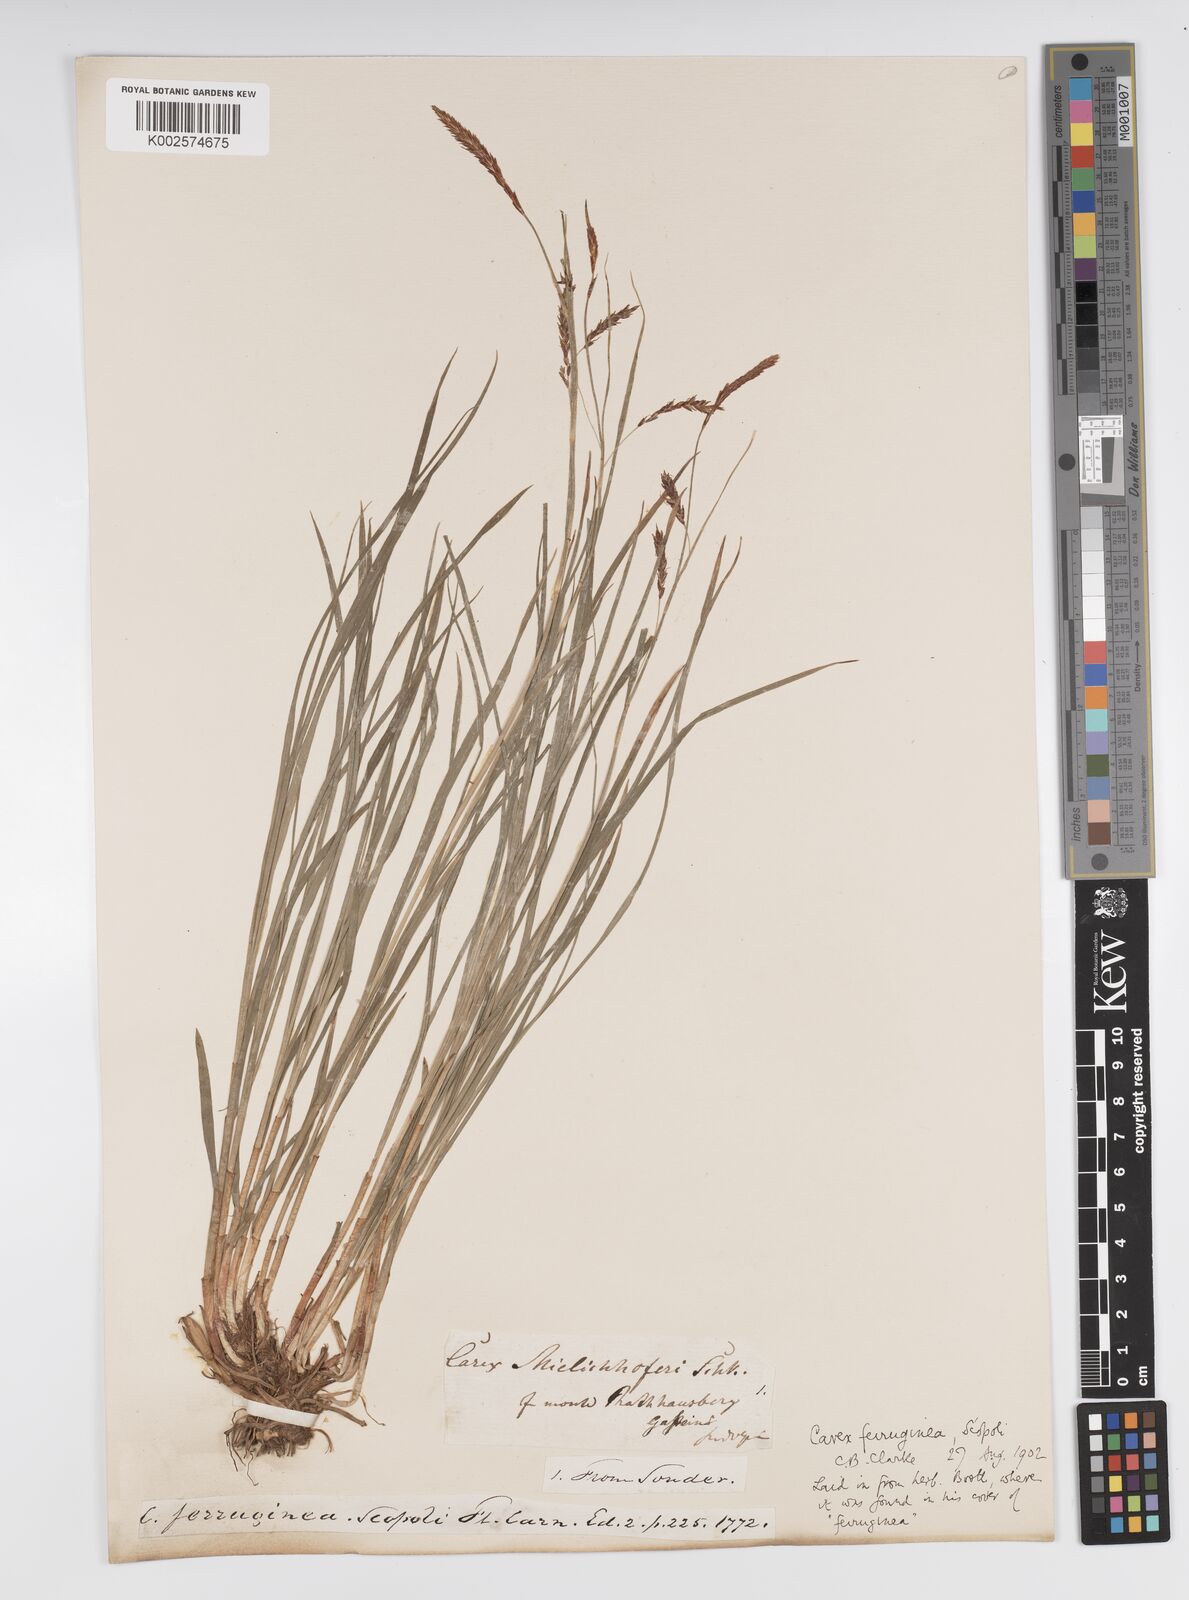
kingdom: Plantae
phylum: Tracheophyta
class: Liliopsida
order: Poales
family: Cyperaceae
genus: Carex
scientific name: Carex ferruginea
